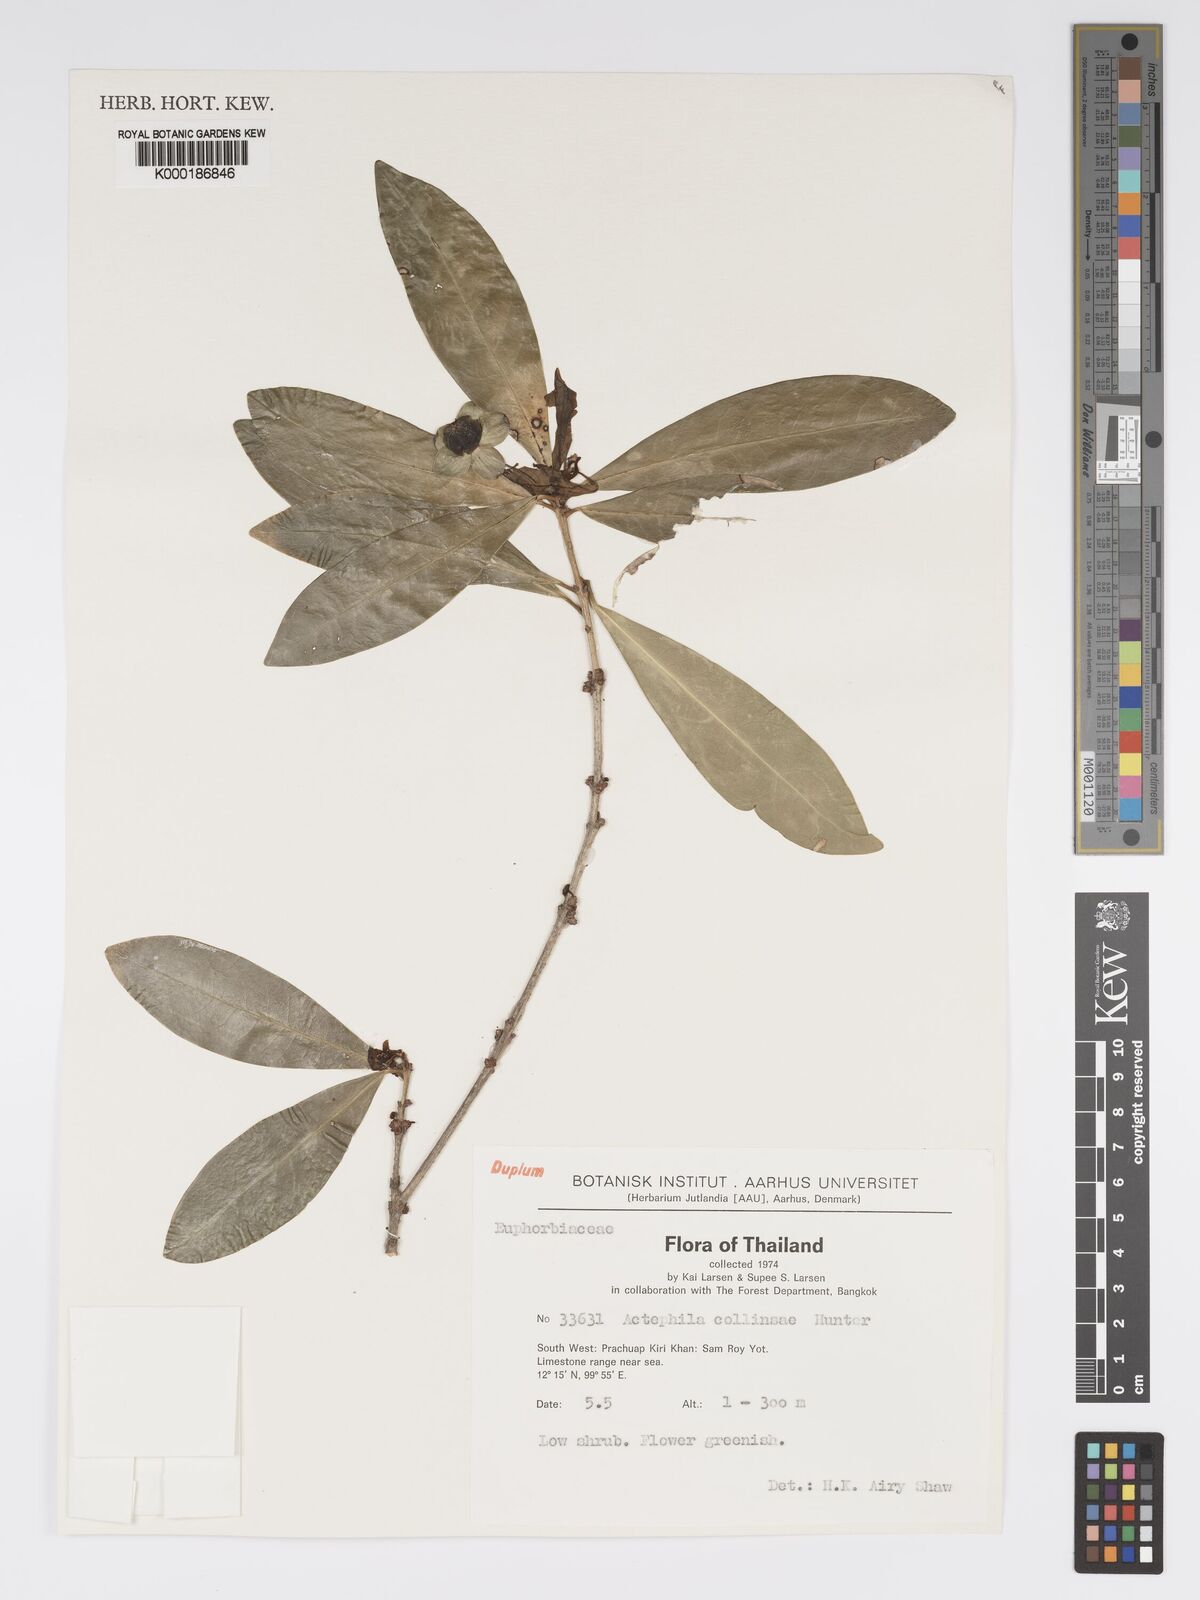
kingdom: Plantae
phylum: Tracheophyta
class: Magnoliopsida
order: Malpighiales
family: Phyllanthaceae
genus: Actephila
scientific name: Actephila collinsiae
